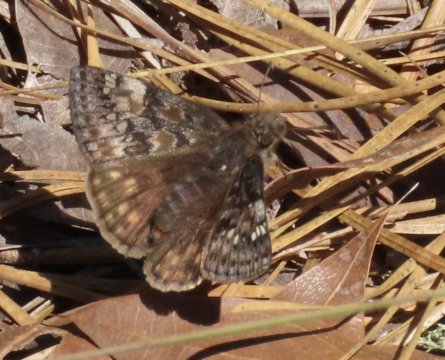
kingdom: Animalia
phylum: Arthropoda
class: Insecta
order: Lepidoptera
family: Hesperiidae
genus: Gesta
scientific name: Gesta
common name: Juvenal's Duskywing
